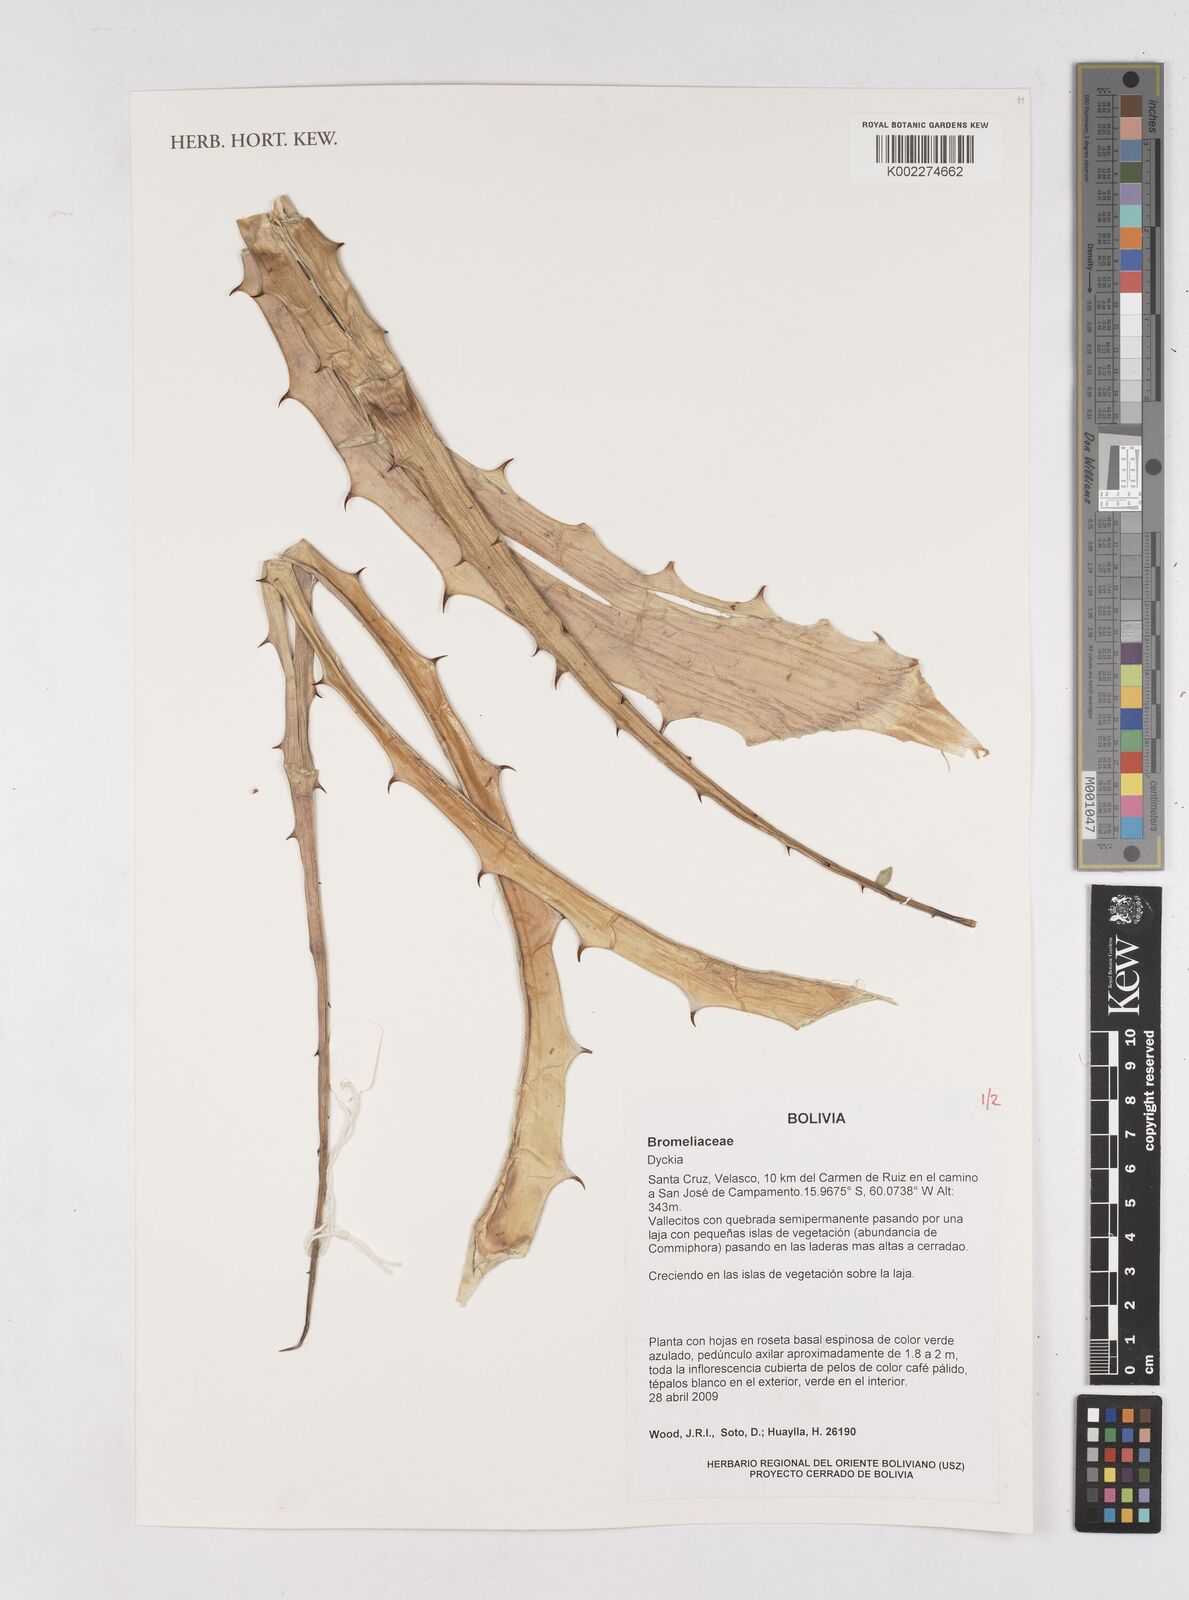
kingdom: Plantae
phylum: Tracheophyta
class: Liliopsida
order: Poales
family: Bromeliaceae
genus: Dyckia
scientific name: Dyckia
